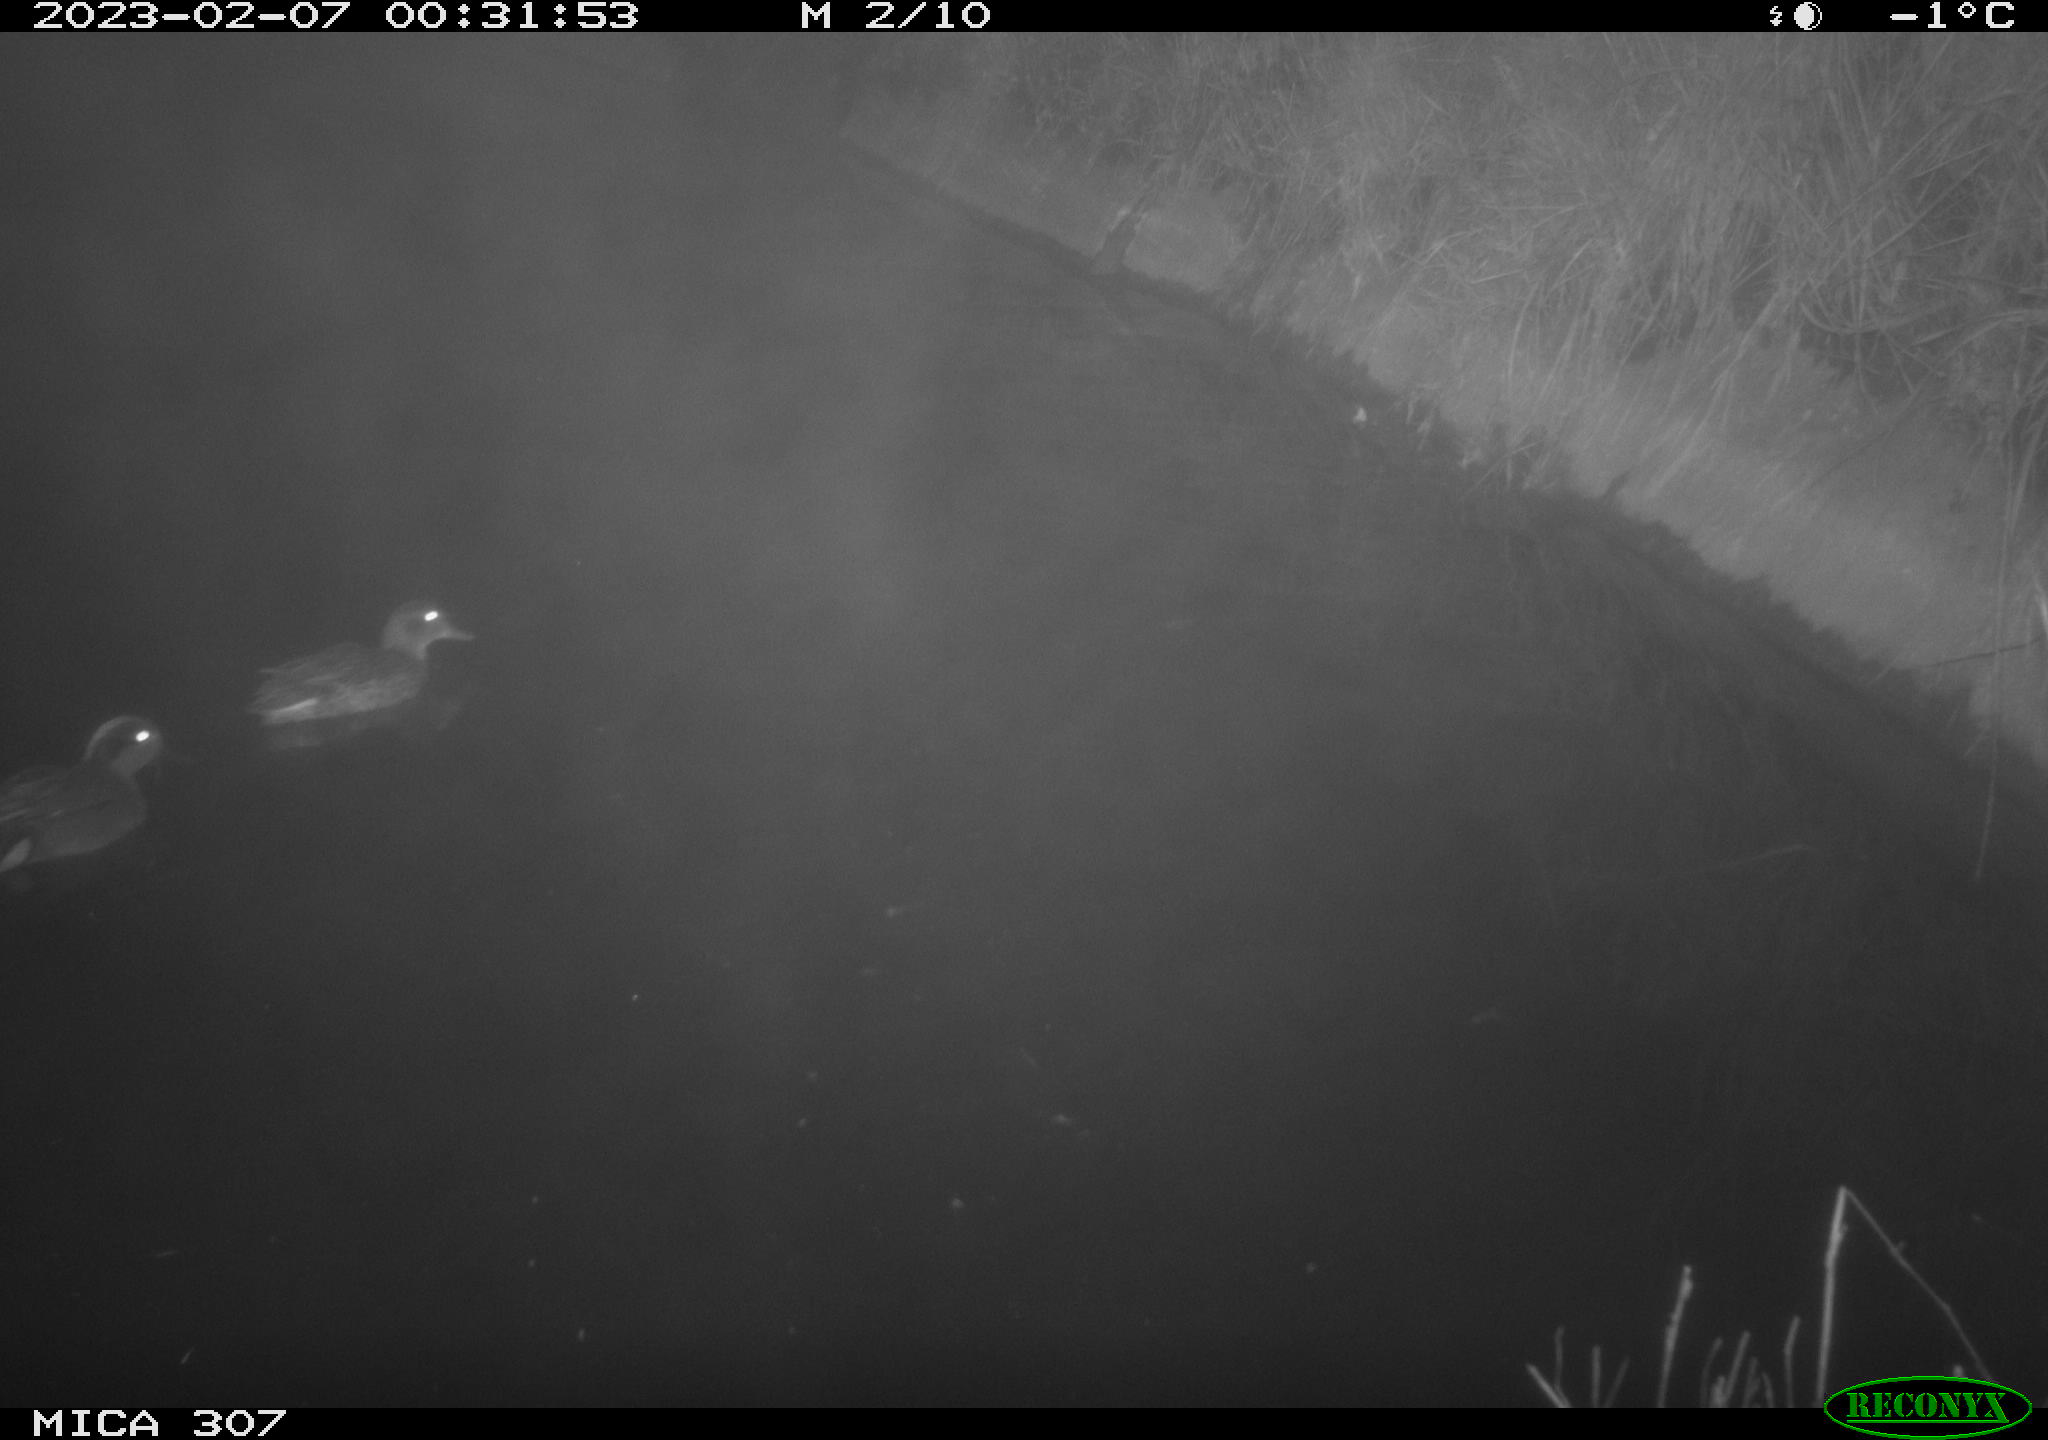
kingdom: Animalia
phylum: Chordata
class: Aves
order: Anseriformes
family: Anatidae
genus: Anas
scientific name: Anas
